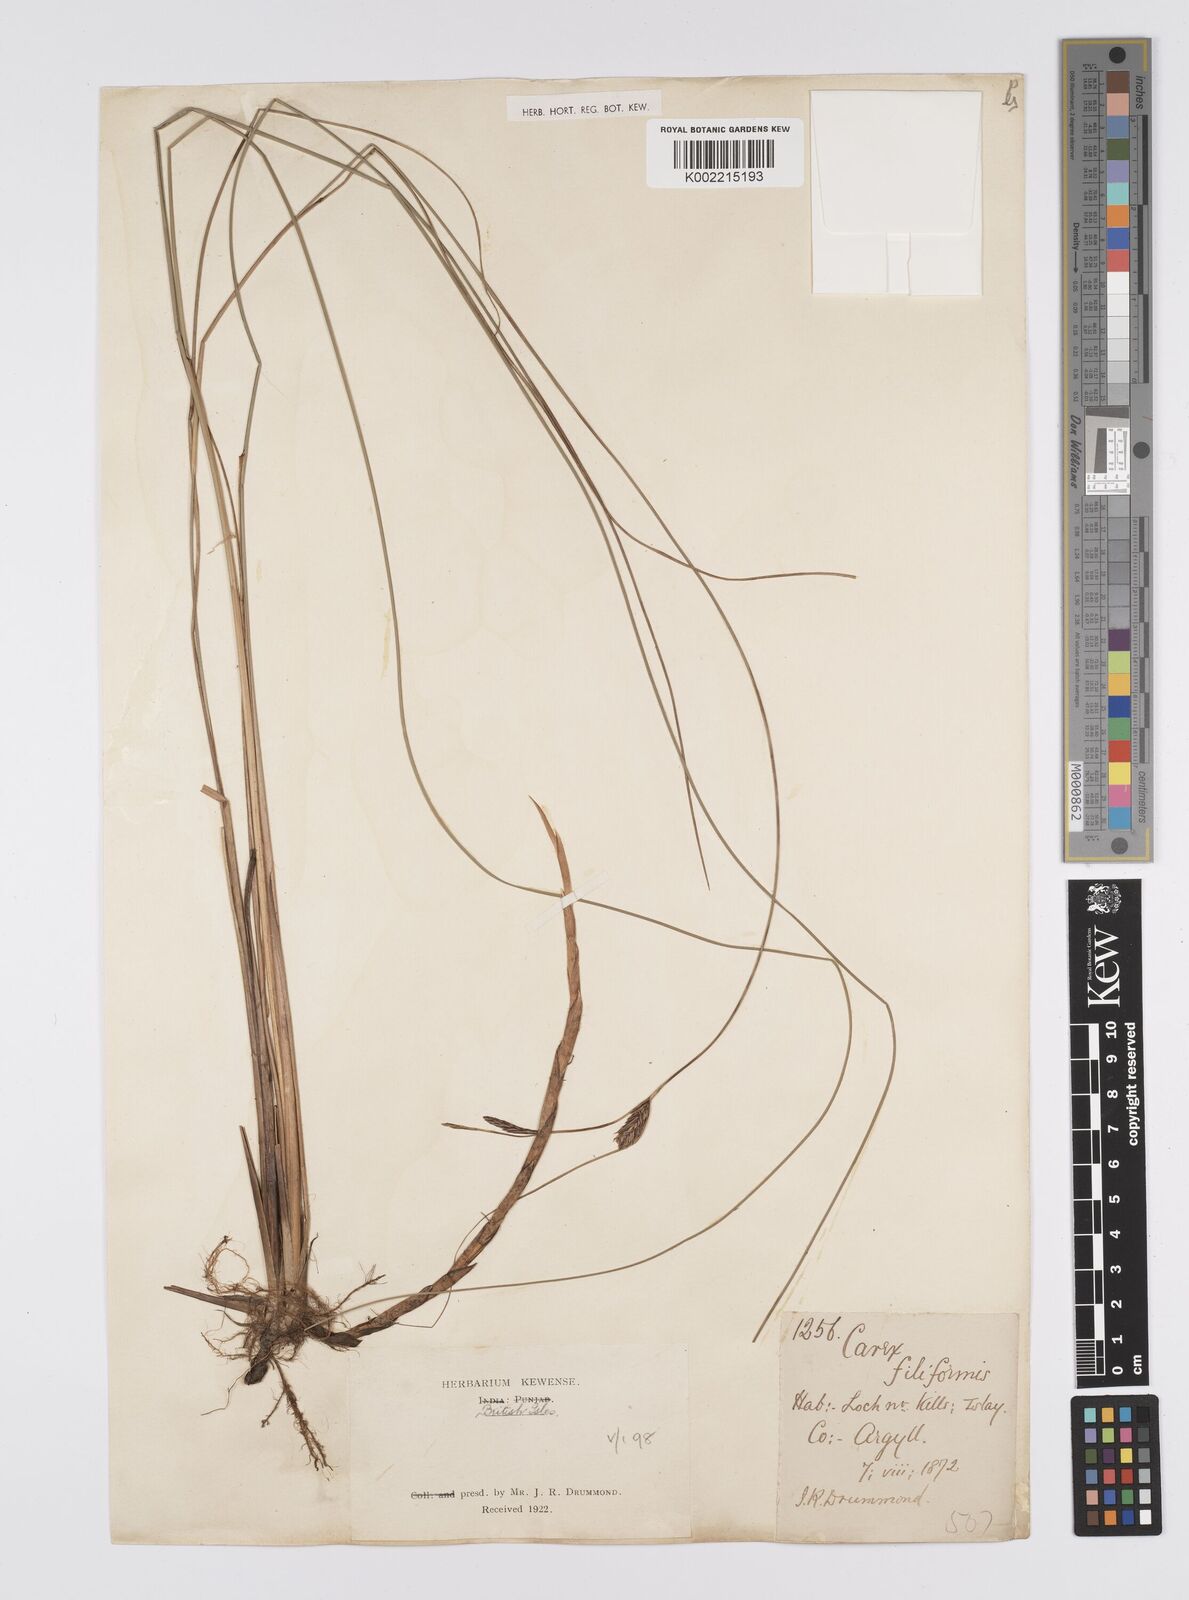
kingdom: Plantae
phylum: Tracheophyta
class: Liliopsida
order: Poales
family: Cyperaceae
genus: Carex
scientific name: Carex lasiocarpa
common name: Slender sedge
